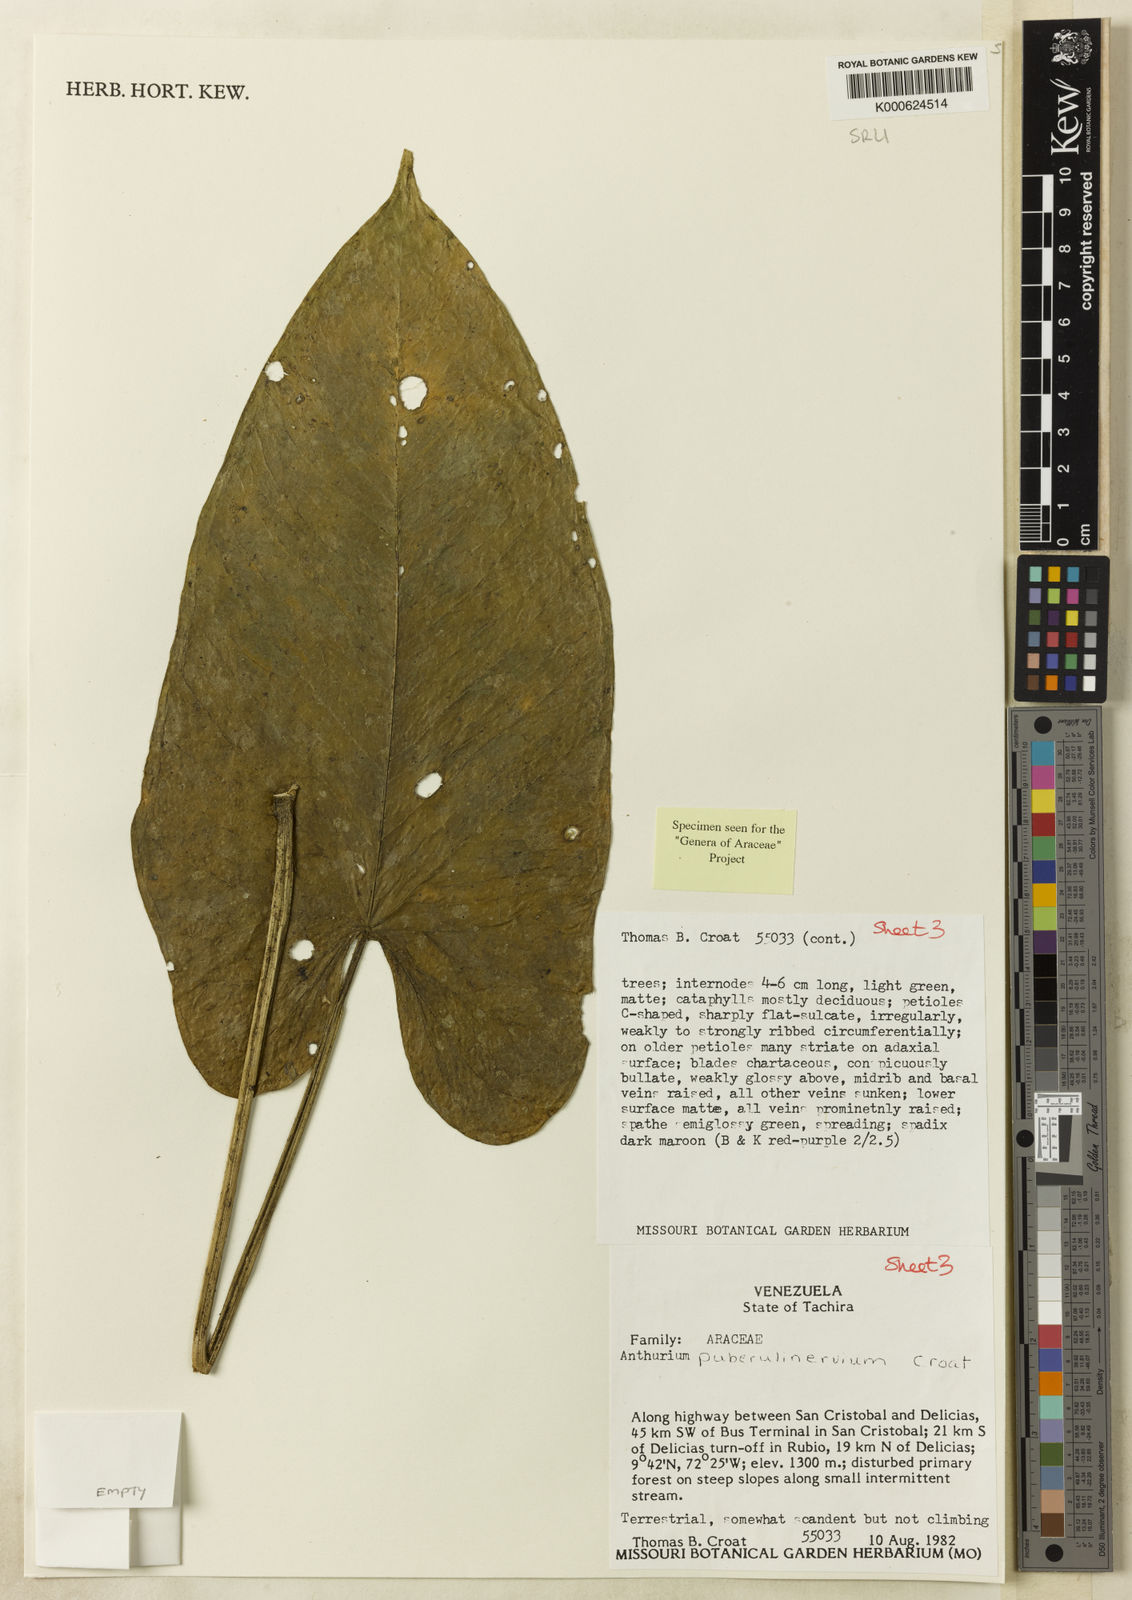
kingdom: Plantae
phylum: Tracheophyta
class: Liliopsida
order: Alismatales
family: Araceae
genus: Anthurium
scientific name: Anthurium puberulinervium
